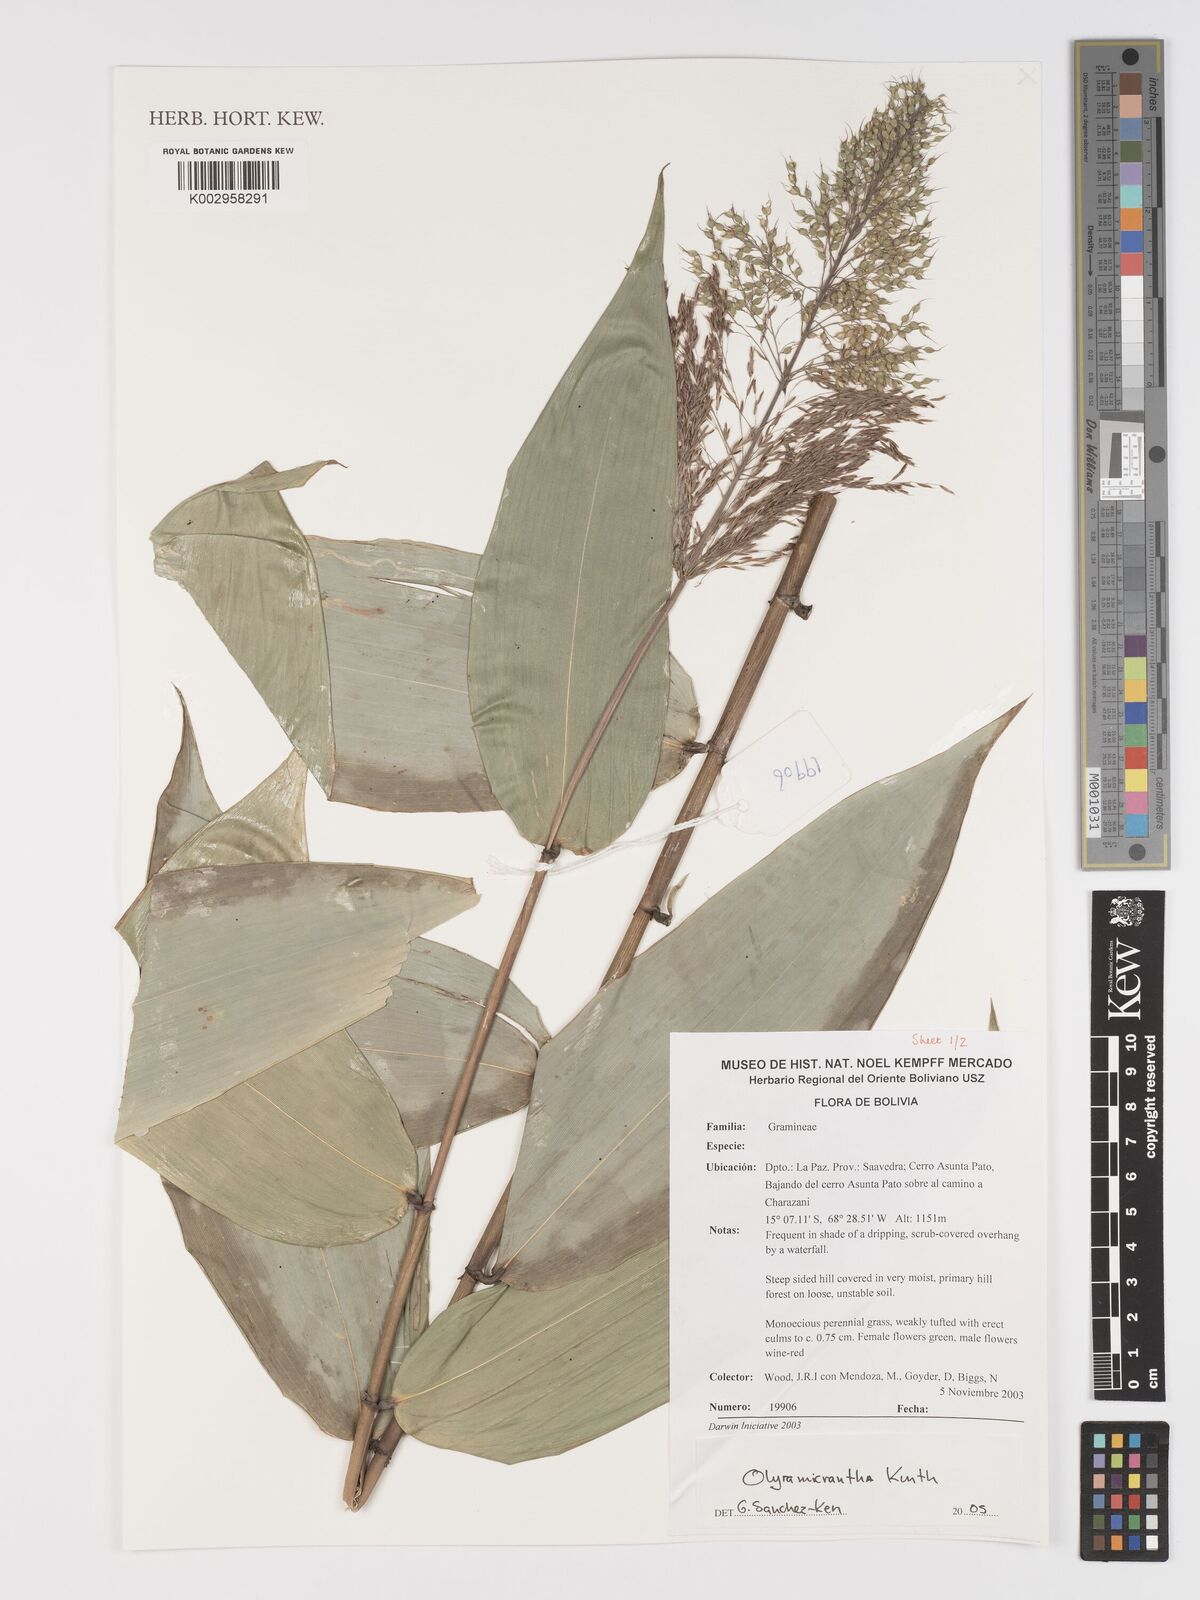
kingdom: Plantae
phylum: Tracheophyta
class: Liliopsida
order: Poales
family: Poaceae
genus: Taquara
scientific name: Taquara micrantha
